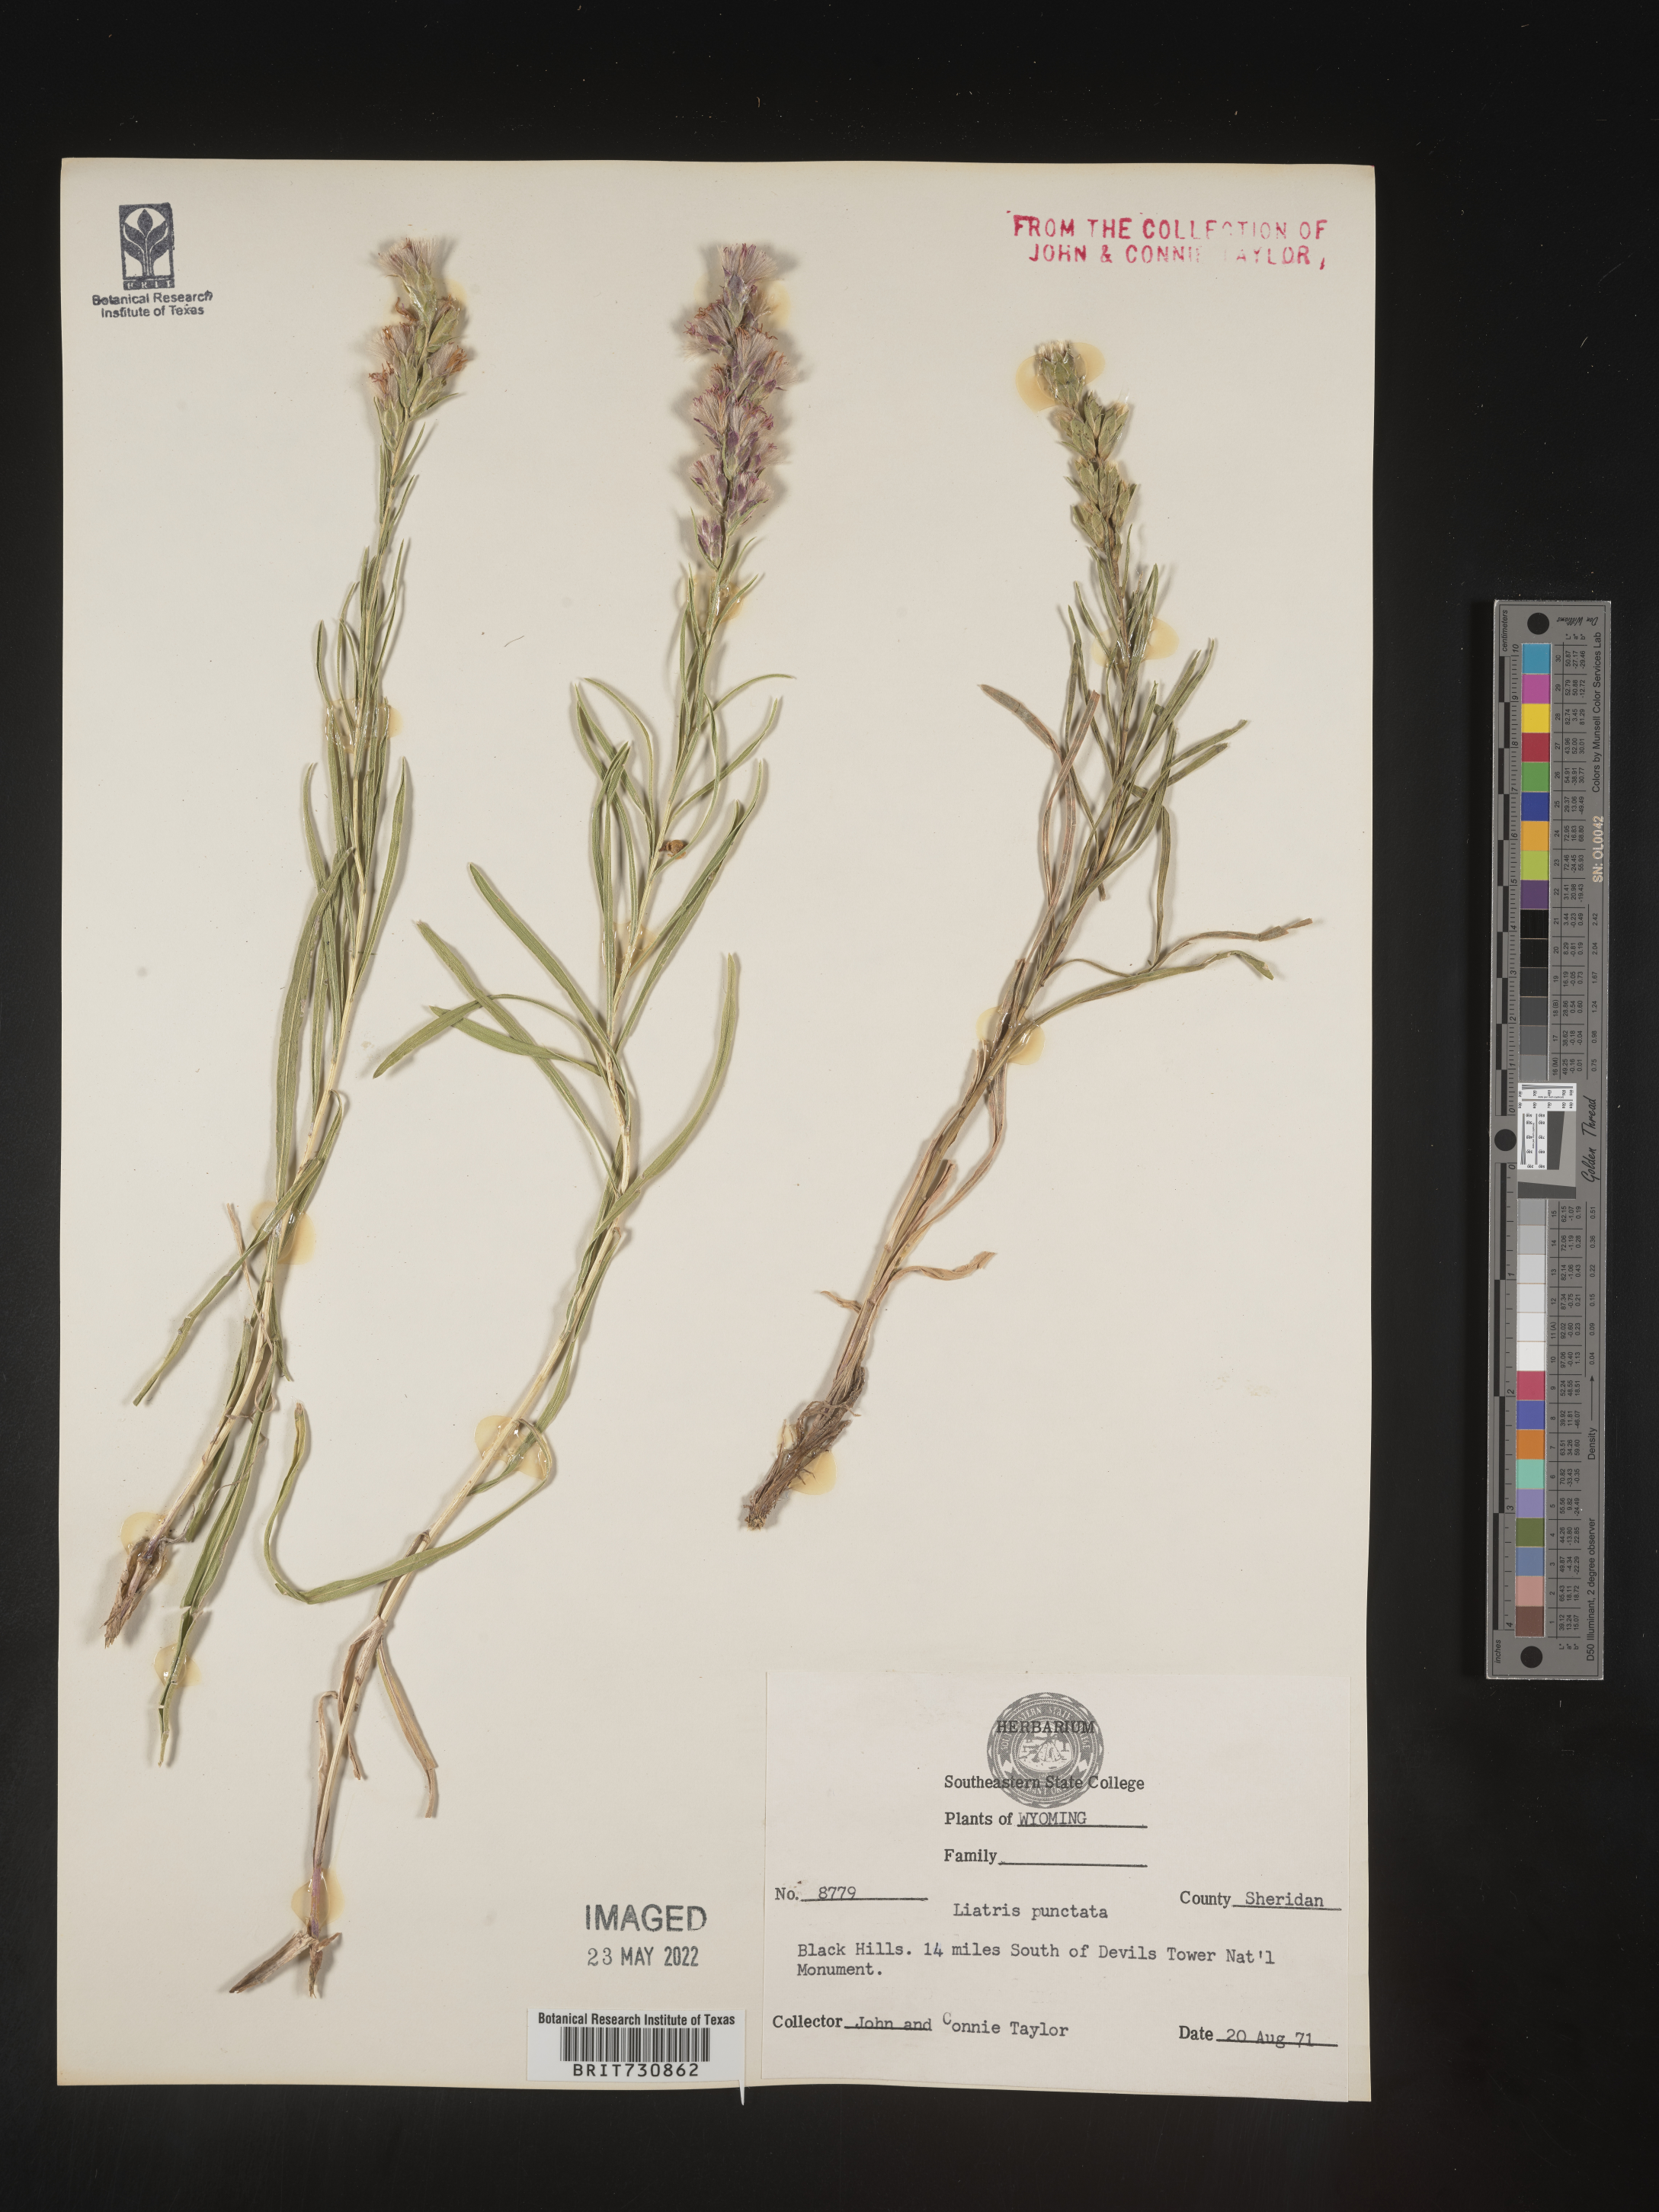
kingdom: Plantae
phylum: Tracheophyta
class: Magnoliopsida
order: Asterales
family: Asteraceae
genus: Liatris
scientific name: Liatris punctata
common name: Dotted gayfeather
